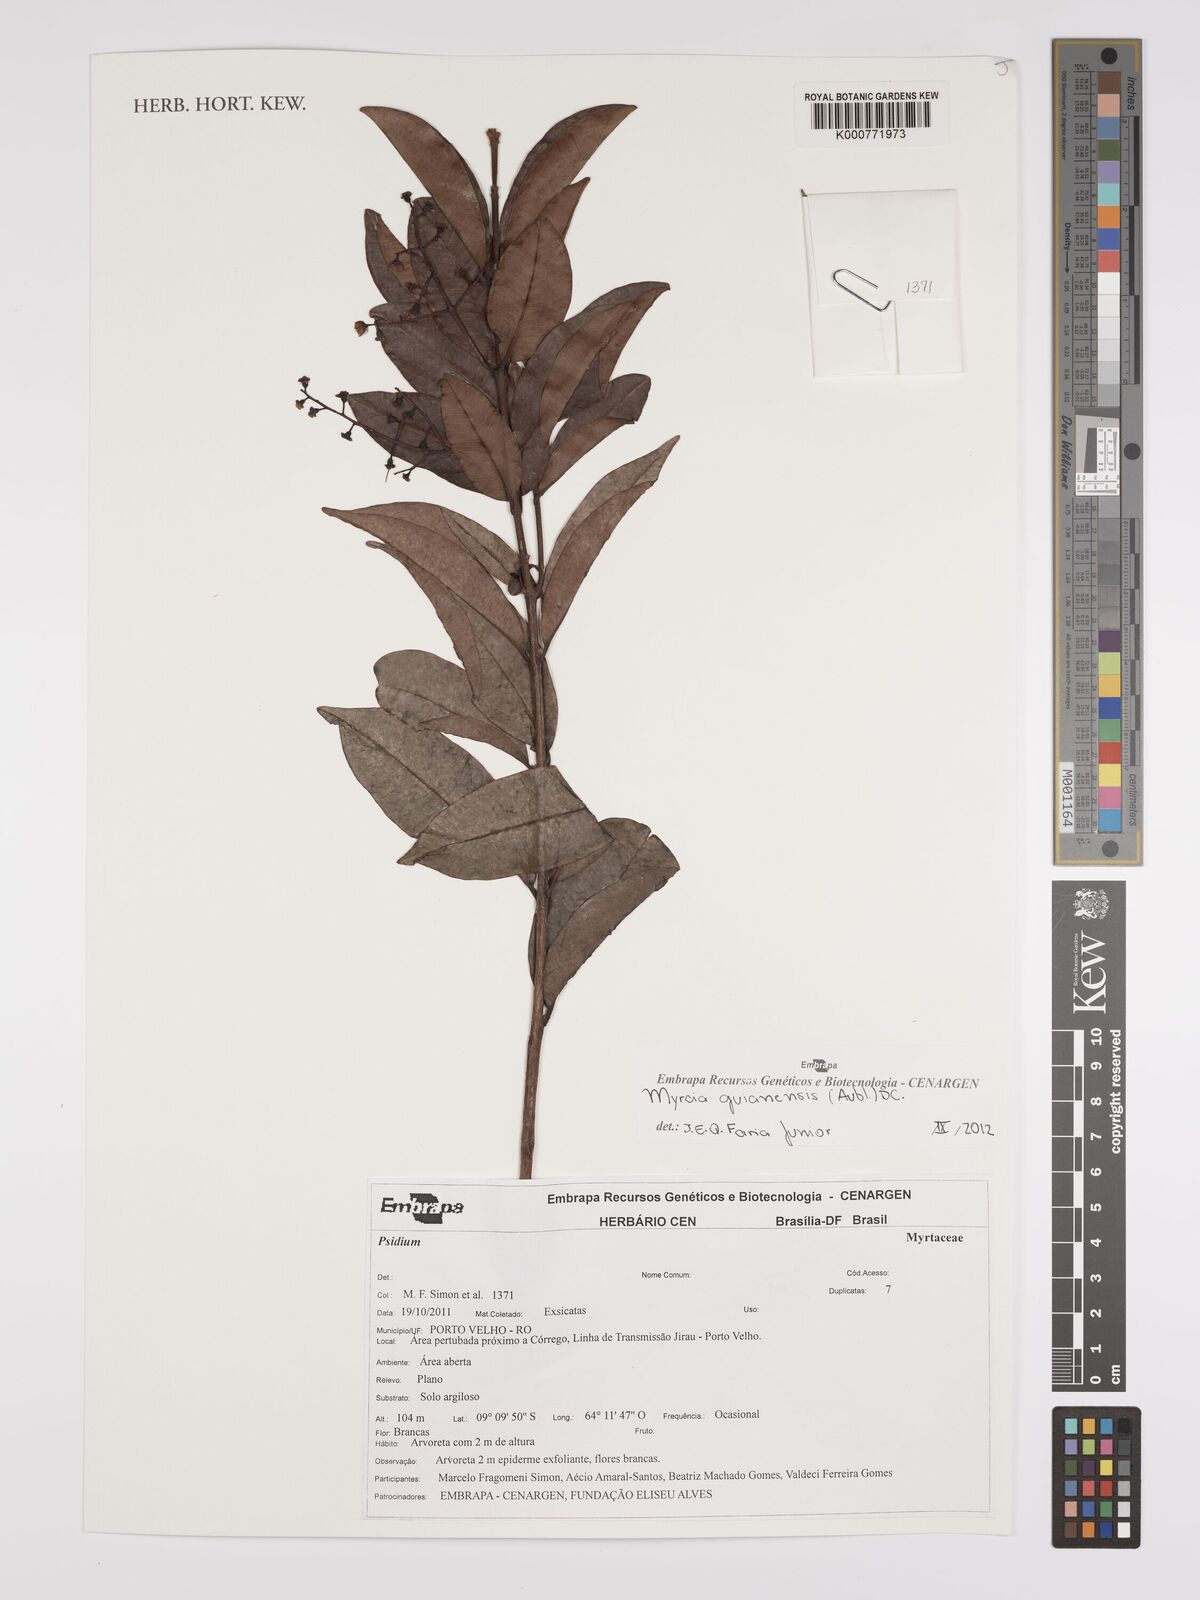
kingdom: Plantae
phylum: Tracheophyta
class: Magnoliopsida
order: Myrtales
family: Myrtaceae
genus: Myrcia
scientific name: Myrcia guianensis
